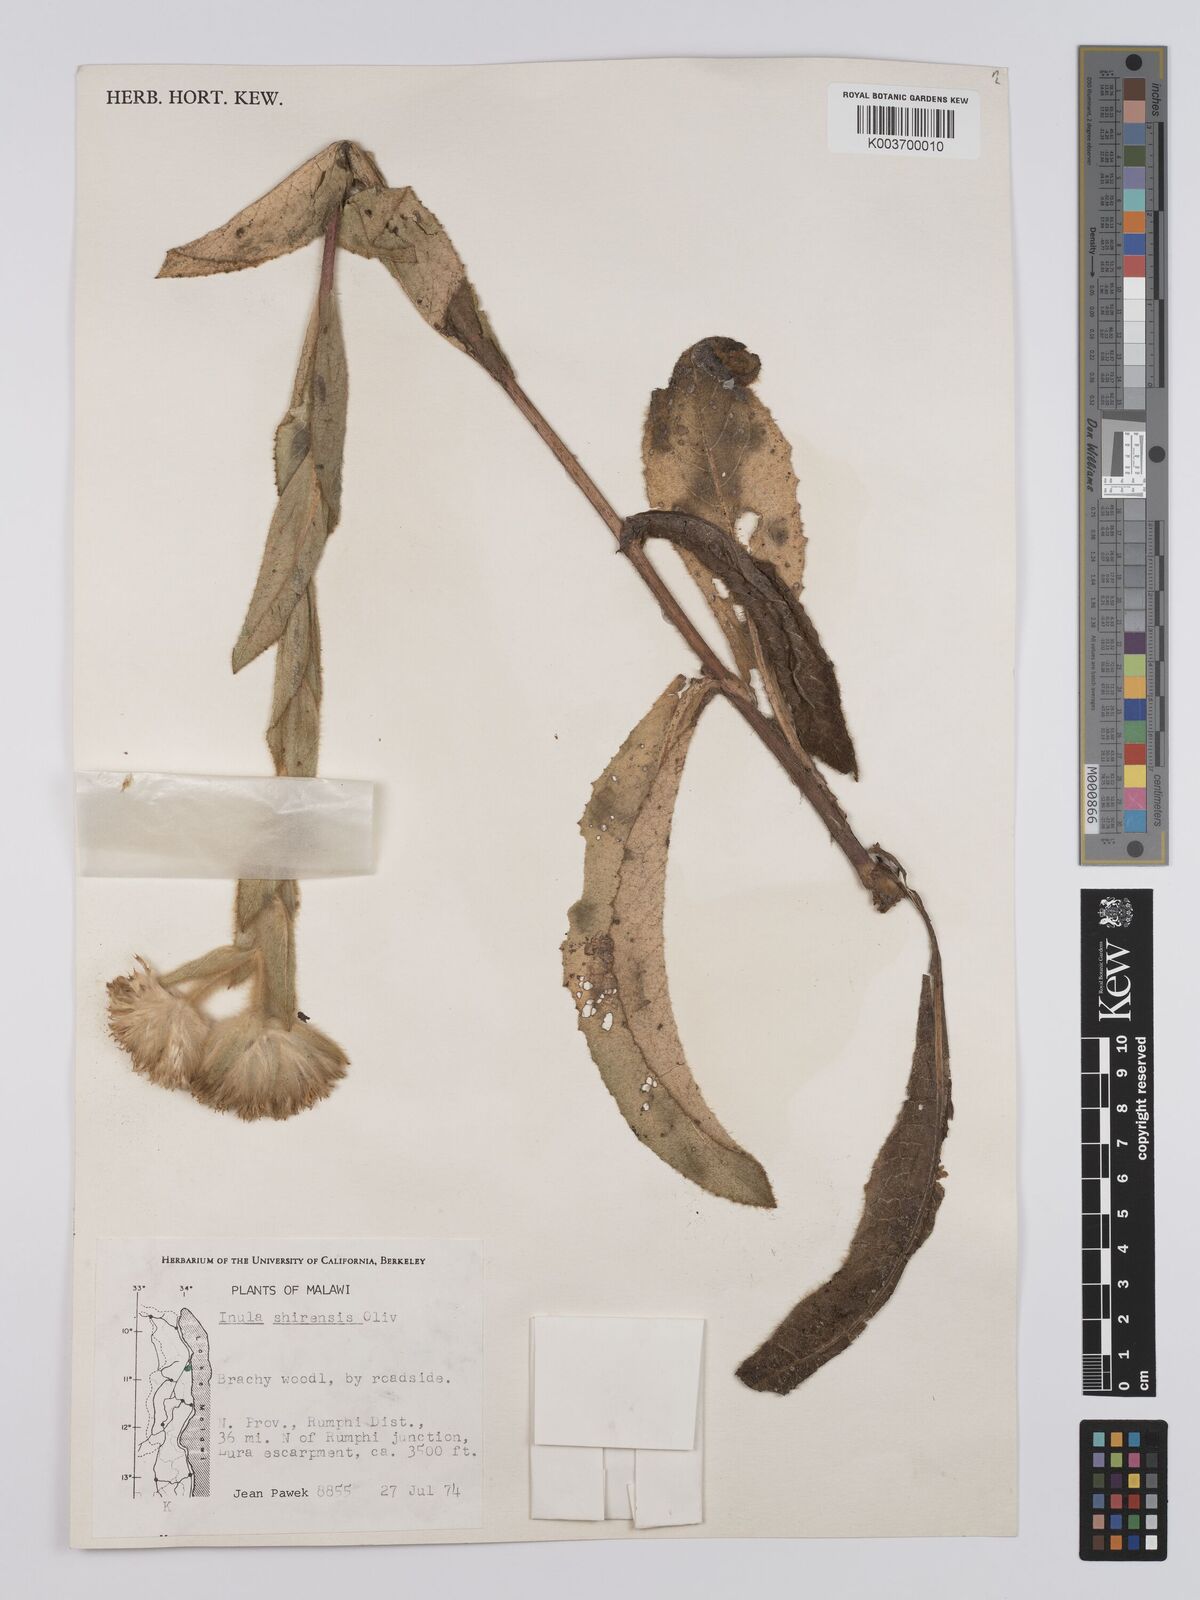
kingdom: Plantae
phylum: Tracheophyta
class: Magnoliopsida
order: Asterales
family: Asteraceae
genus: Monactinocephalus
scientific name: Monactinocephalus shirensis
